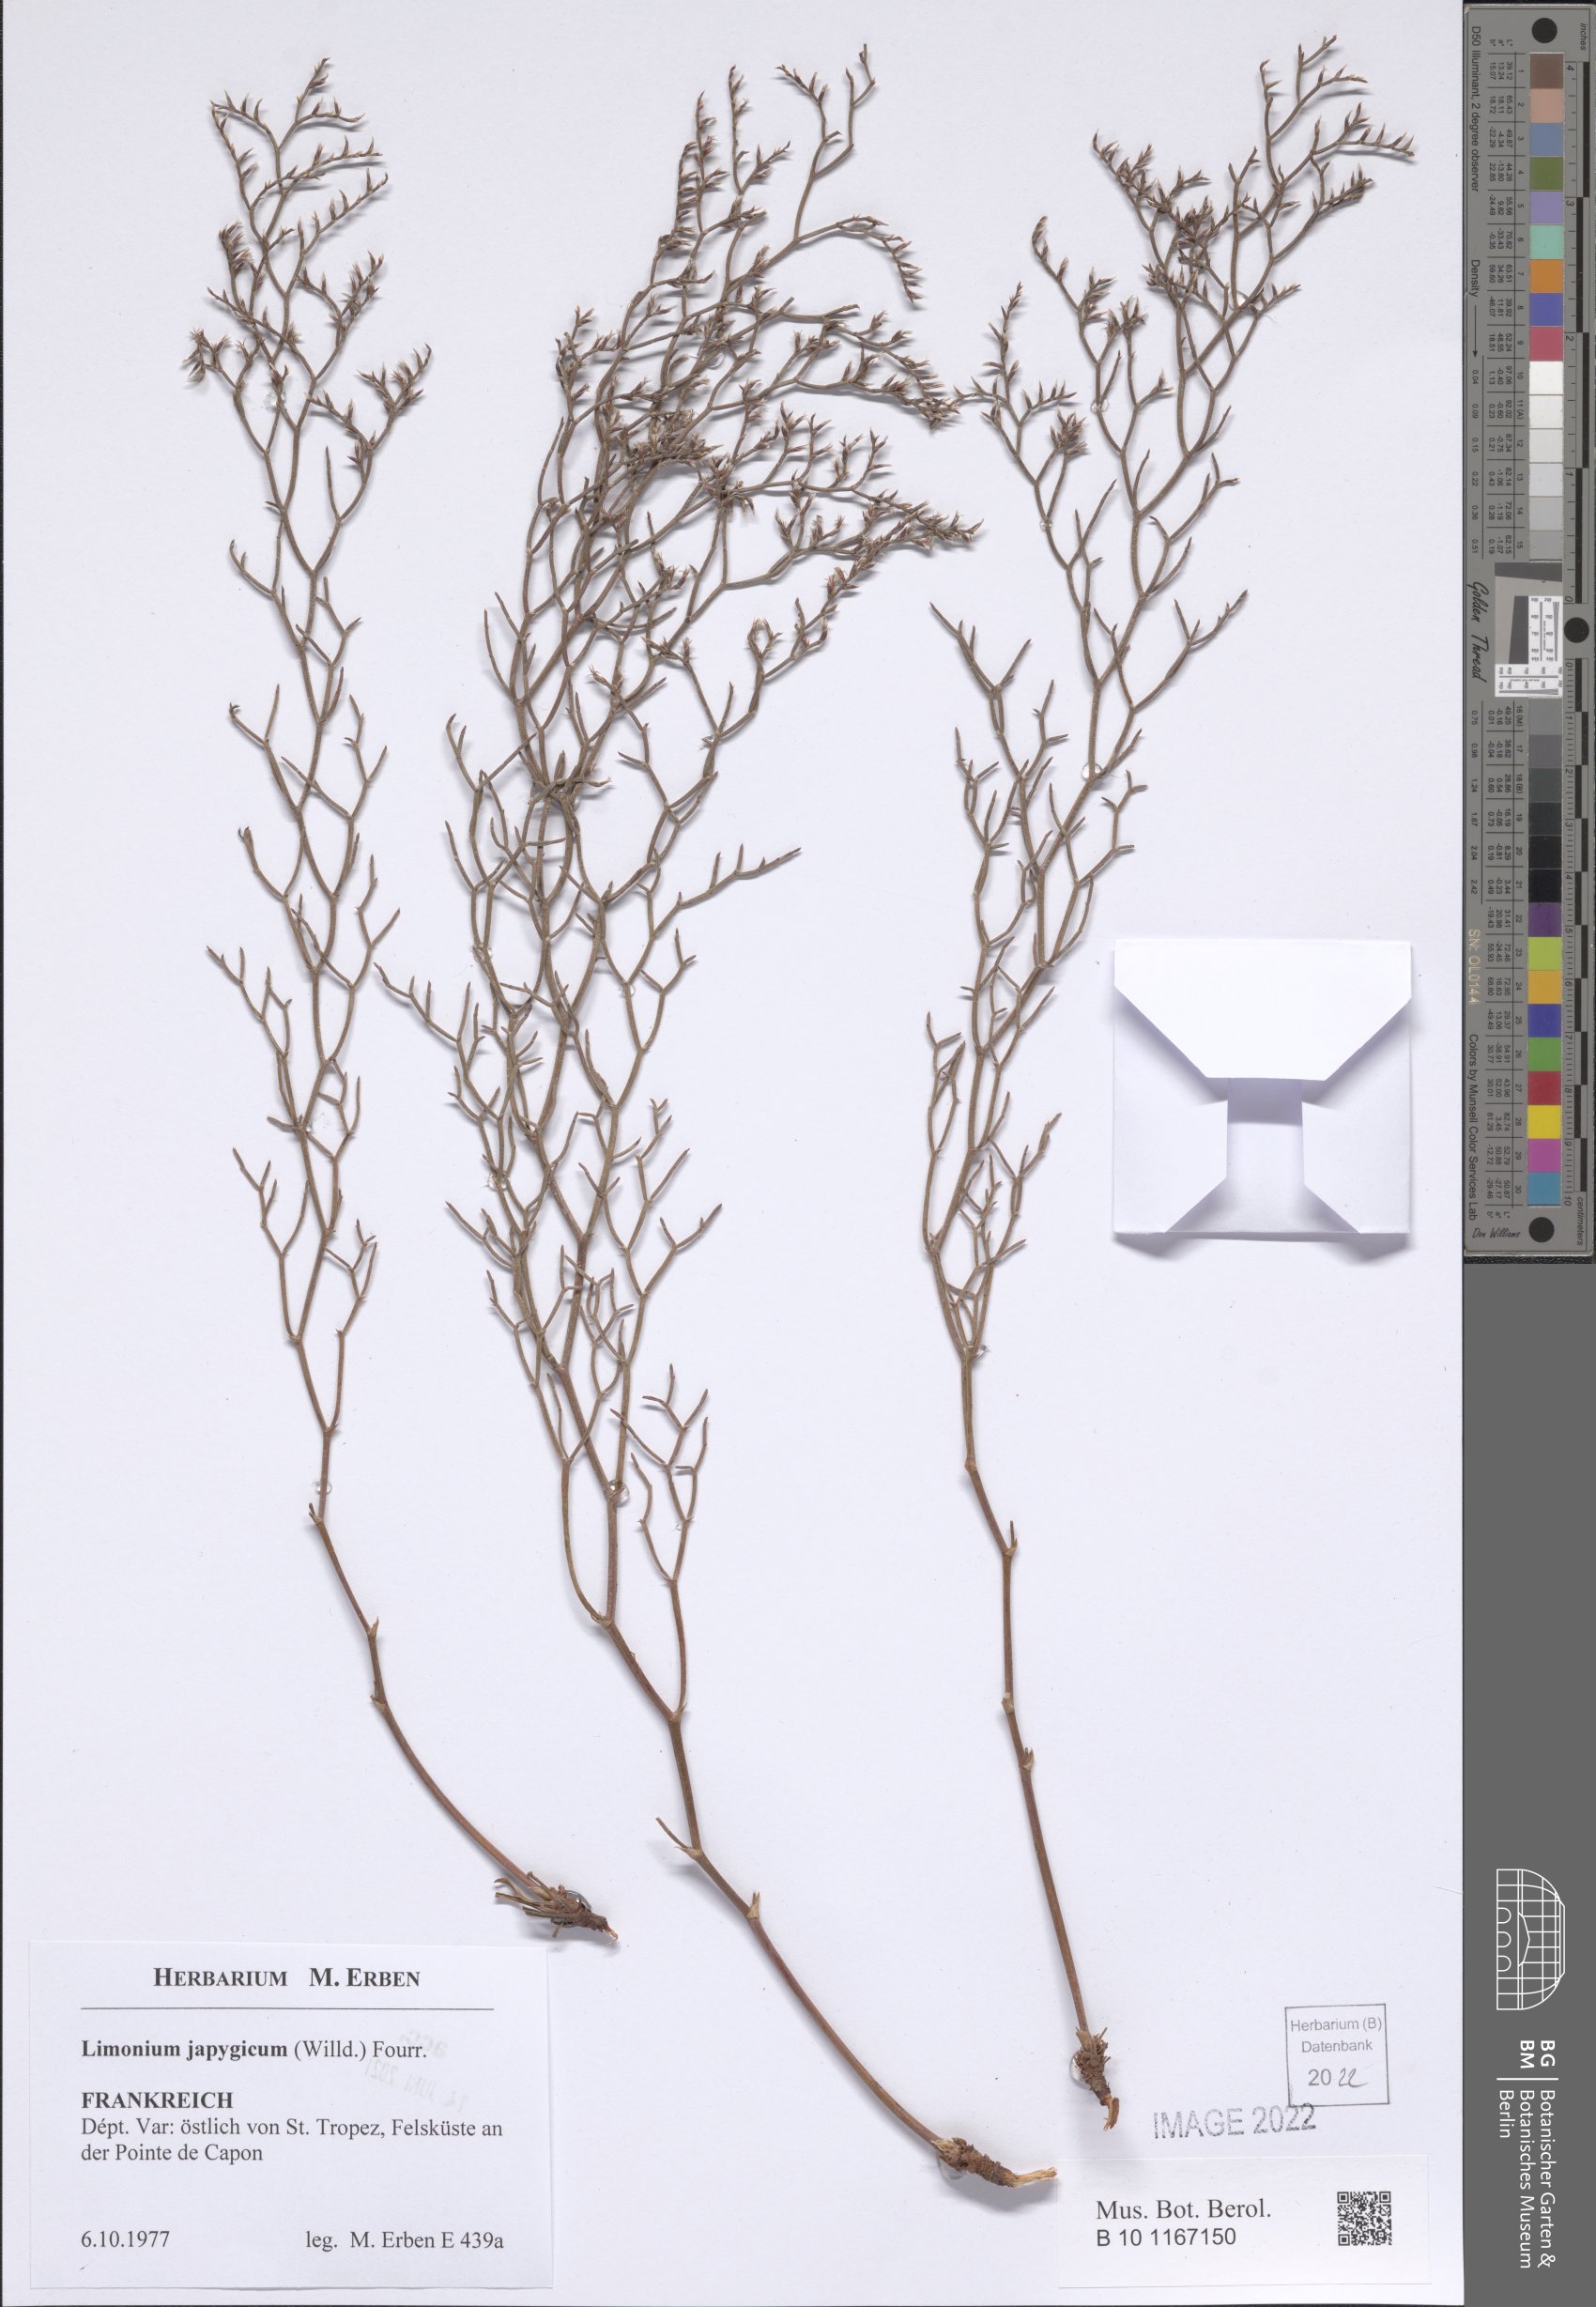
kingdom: Plantae
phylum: Tracheophyta
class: Magnoliopsida
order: Caryophyllales
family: Plumbaginaceae
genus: Limonium
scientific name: Limonium japygicum
